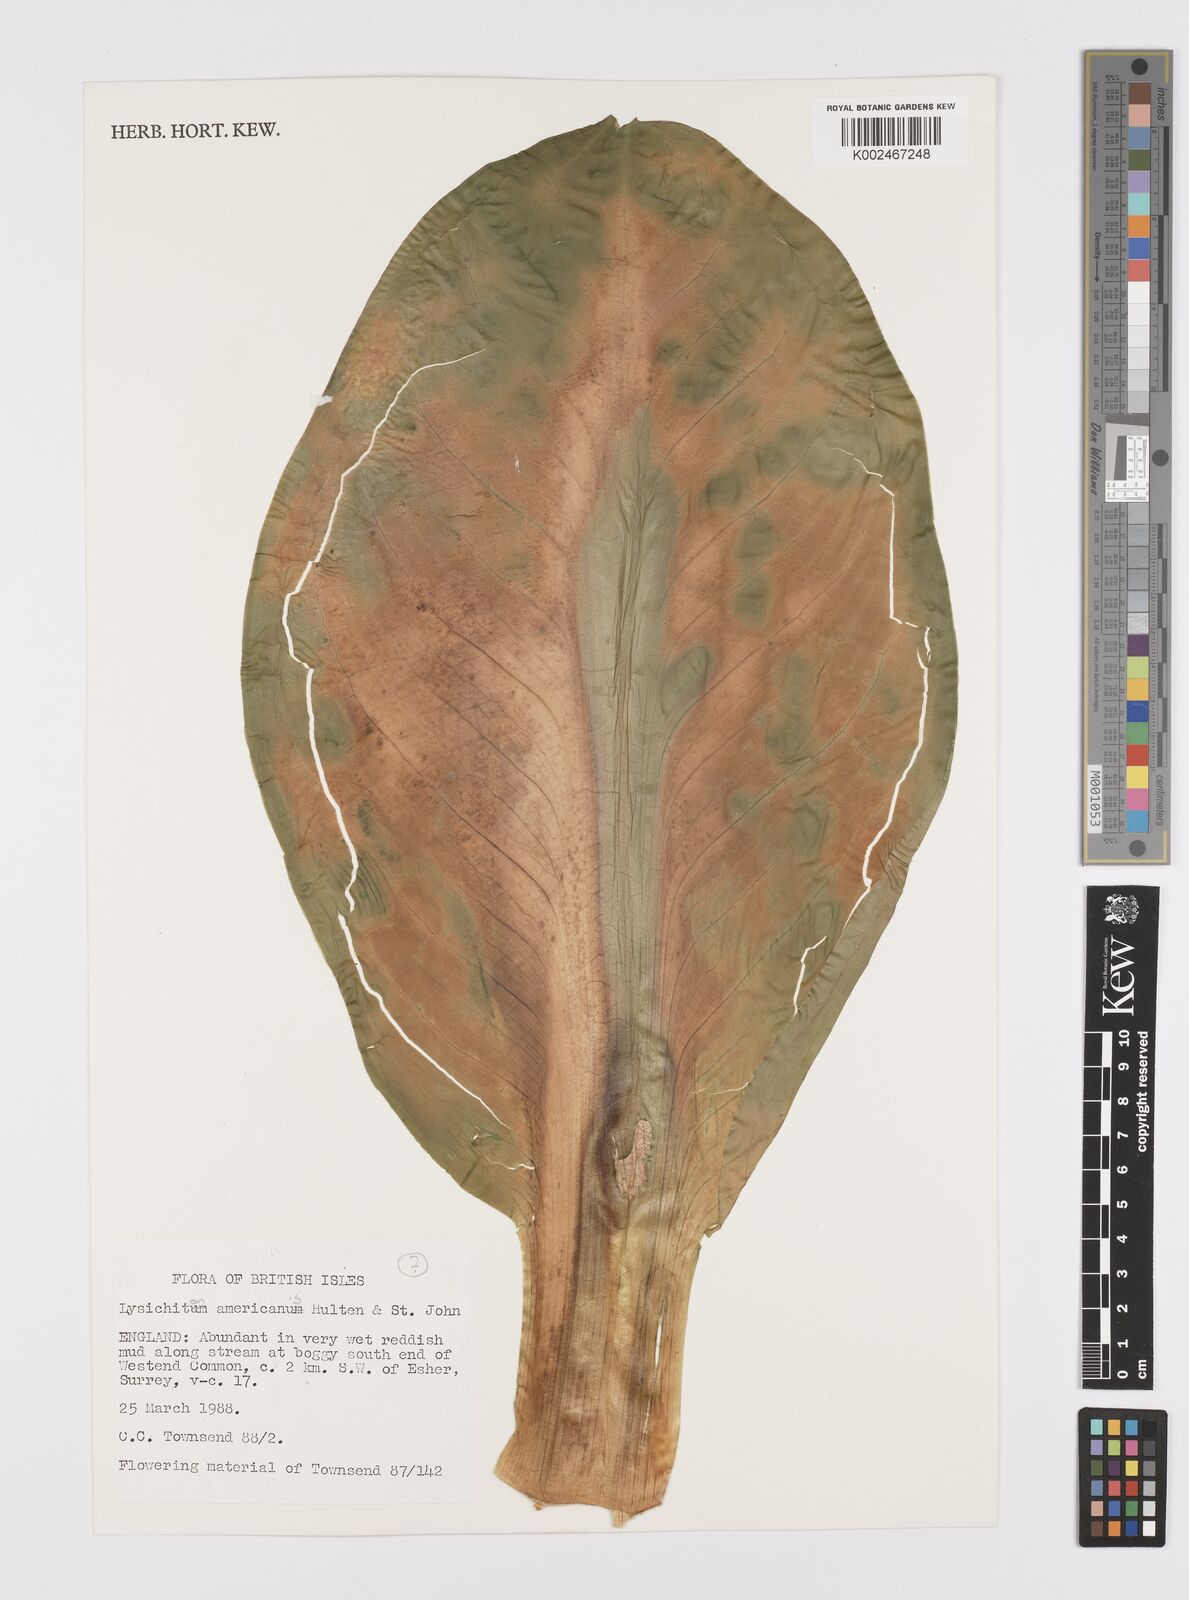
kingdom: Plantae
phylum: Tracheophyta
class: Liliopsida
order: Alismatales
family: Araceae
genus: Lysichiton
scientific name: Lysichiton americanus
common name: American skunk cabbage
